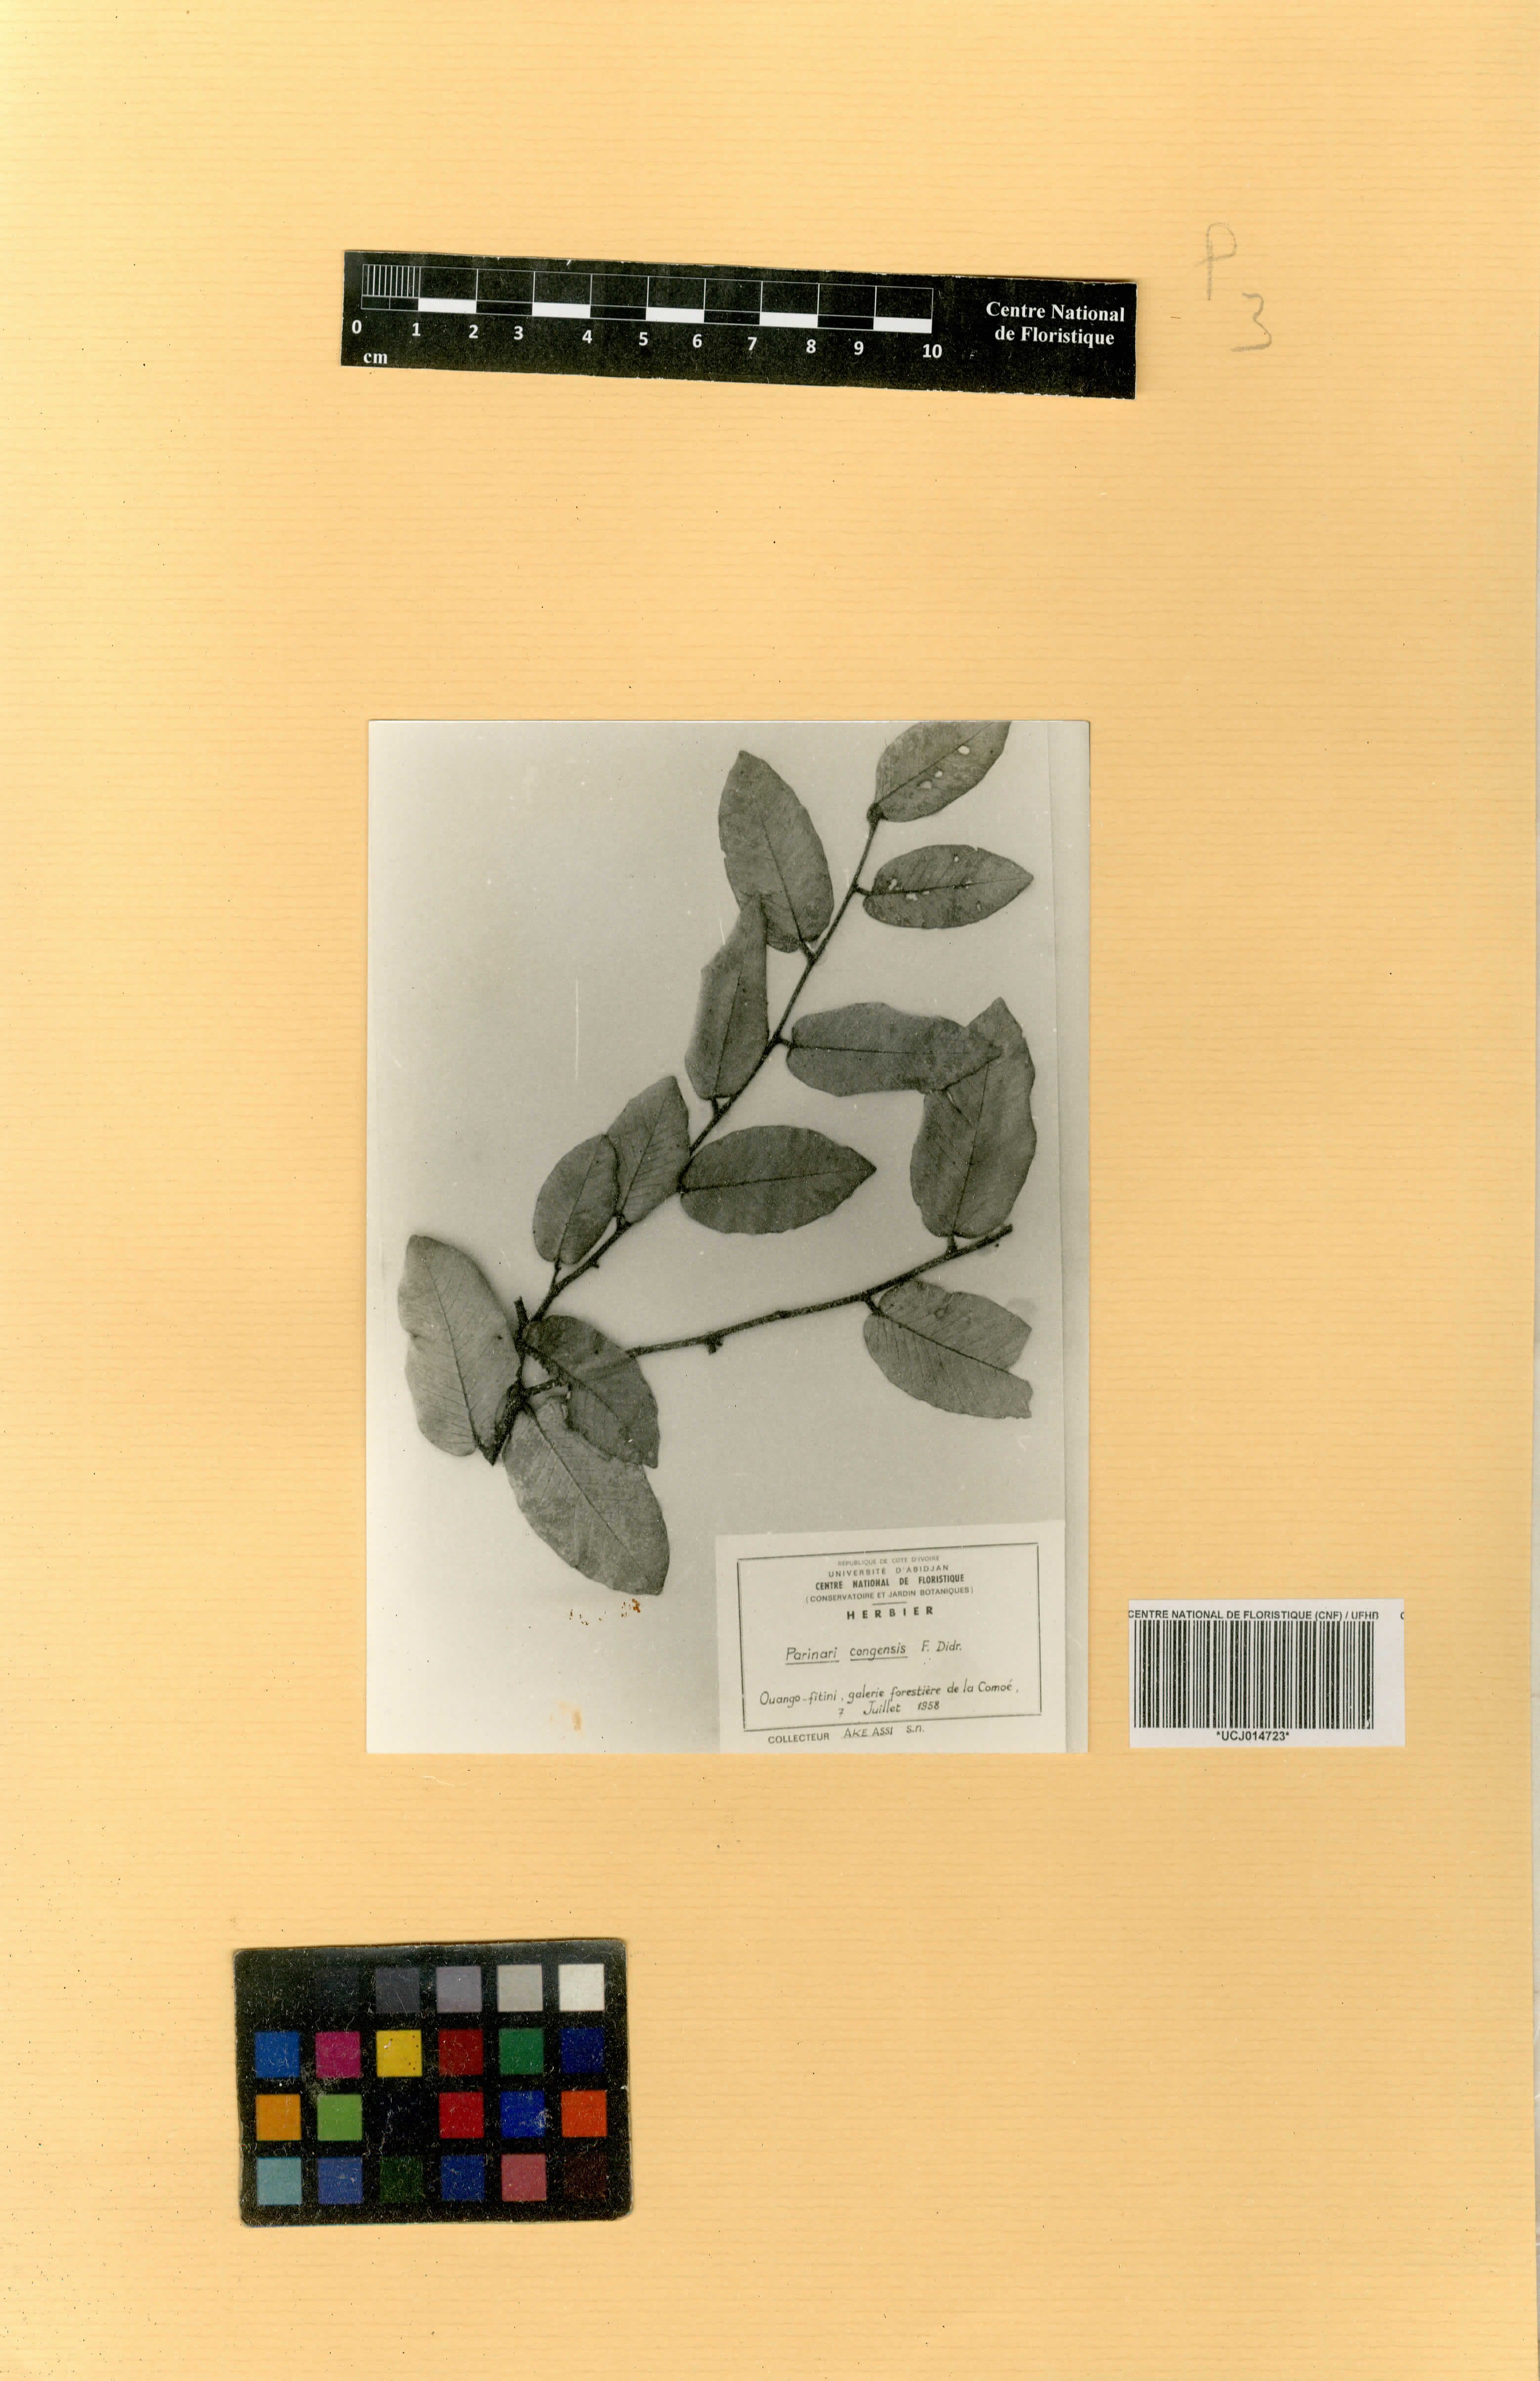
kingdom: Plantae
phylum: Tracheophyta
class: Magnoliopsida
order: Malpighiales
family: Chrysobalanaceae
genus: Parinari
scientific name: Parinari congensis
